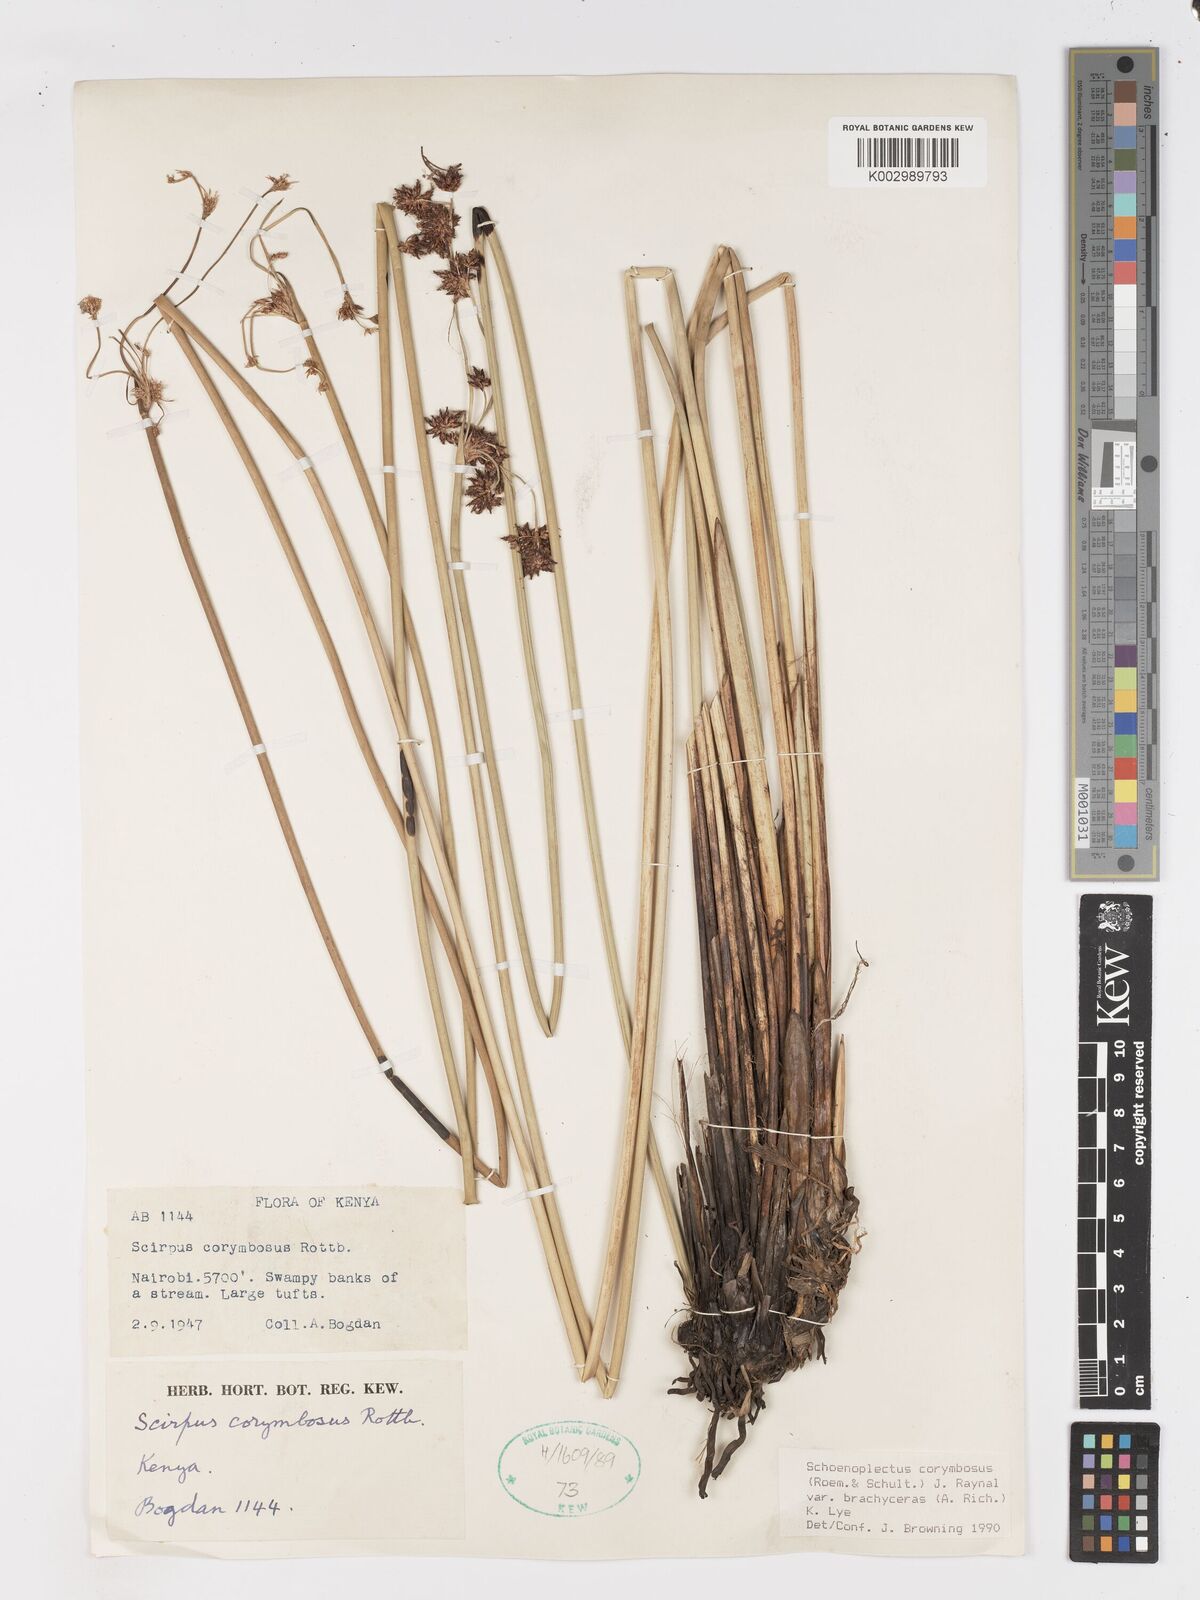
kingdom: Plantae
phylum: Tracheophyta
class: Liliopsida
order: Poales
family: Cyperaceae
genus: Schoenoplectiella
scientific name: Schoenoplectiella brachyceras
